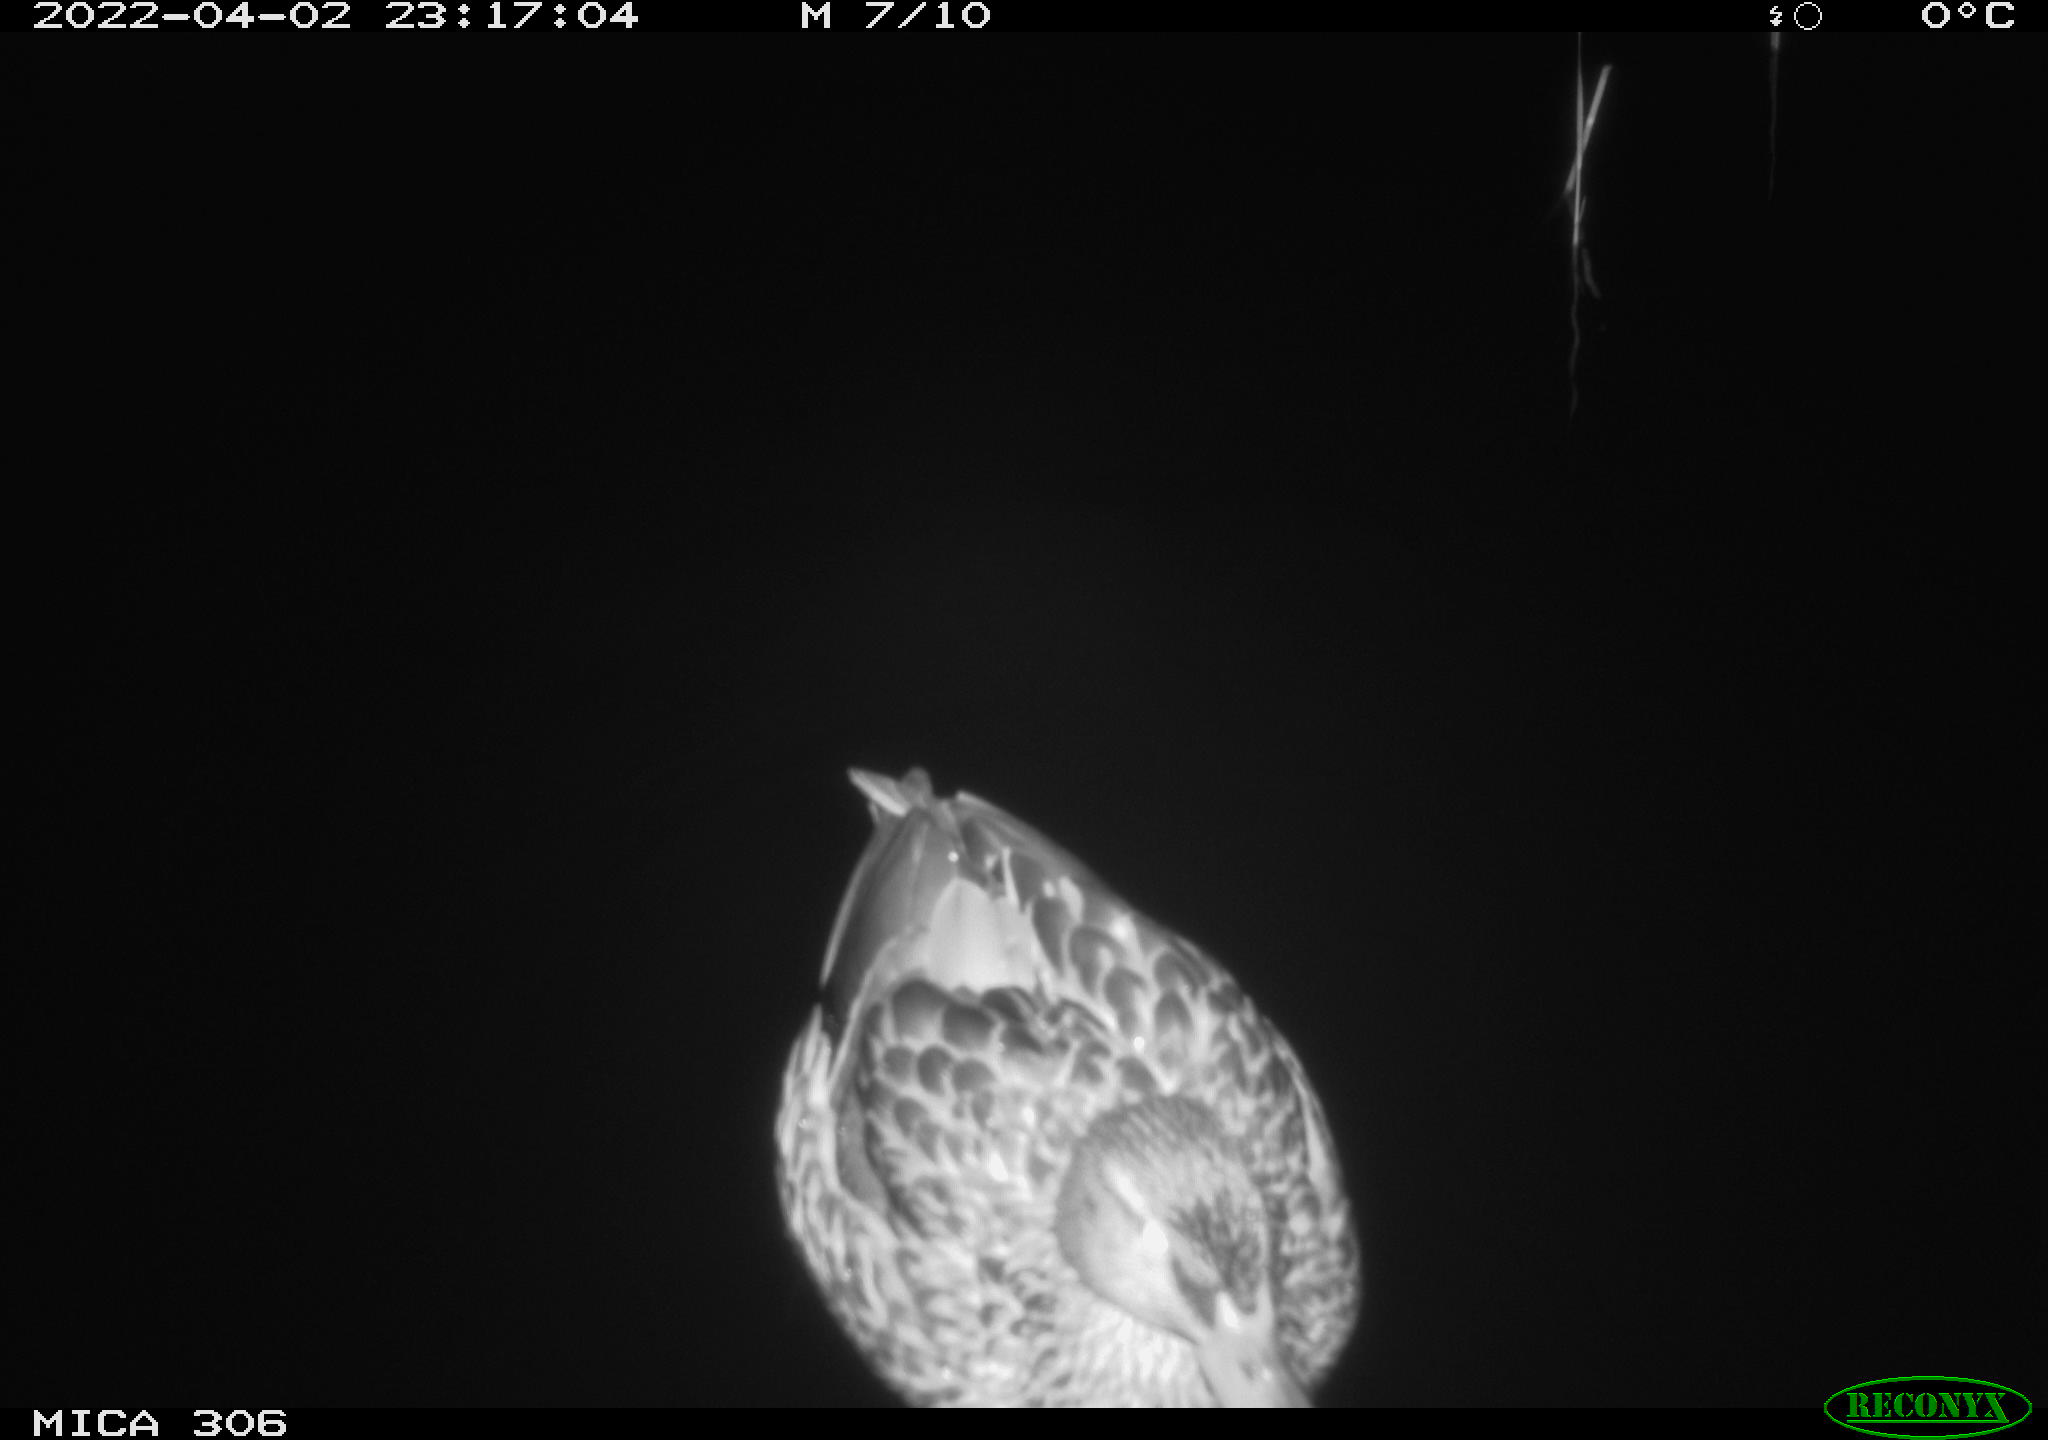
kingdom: Animalia
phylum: Chordata
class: Aves
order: Anseriformes
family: Anatidae
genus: Anas
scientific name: Anas
